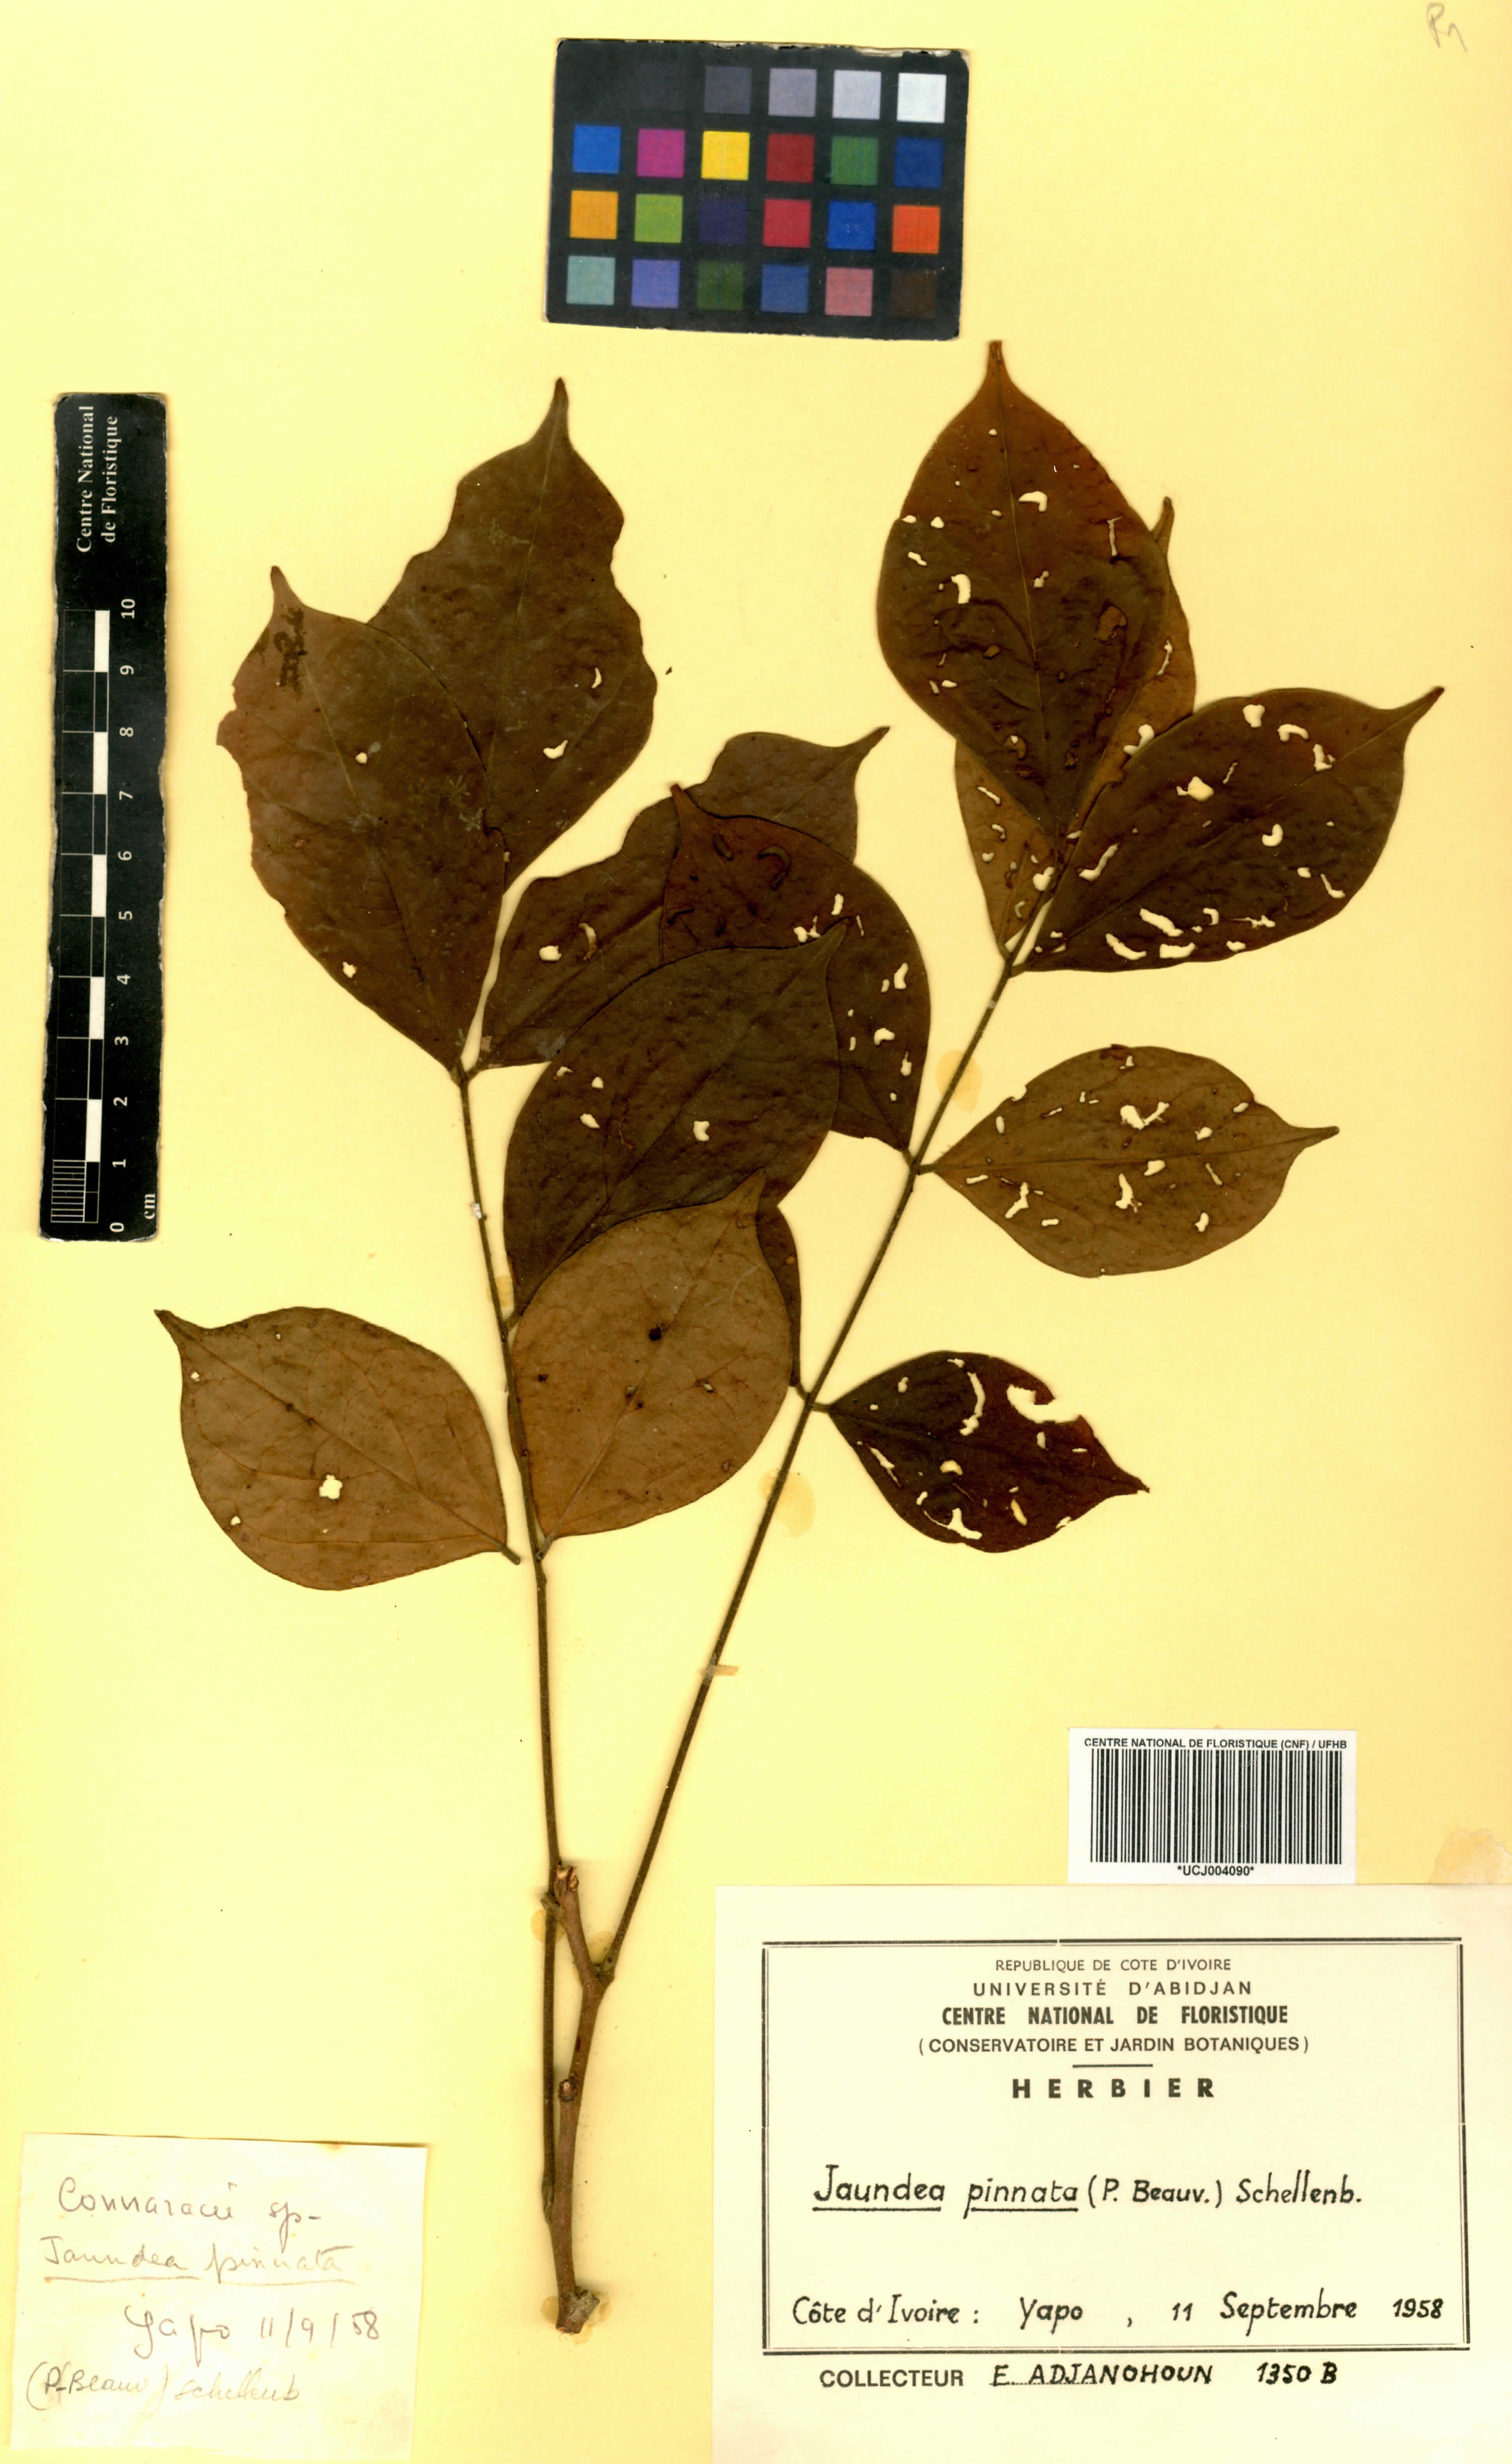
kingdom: Plantae
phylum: Tracheophyta
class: Magnoliopsida
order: Oxalidales
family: Connaraceae
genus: Rourea
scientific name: Rourea thomsonii
